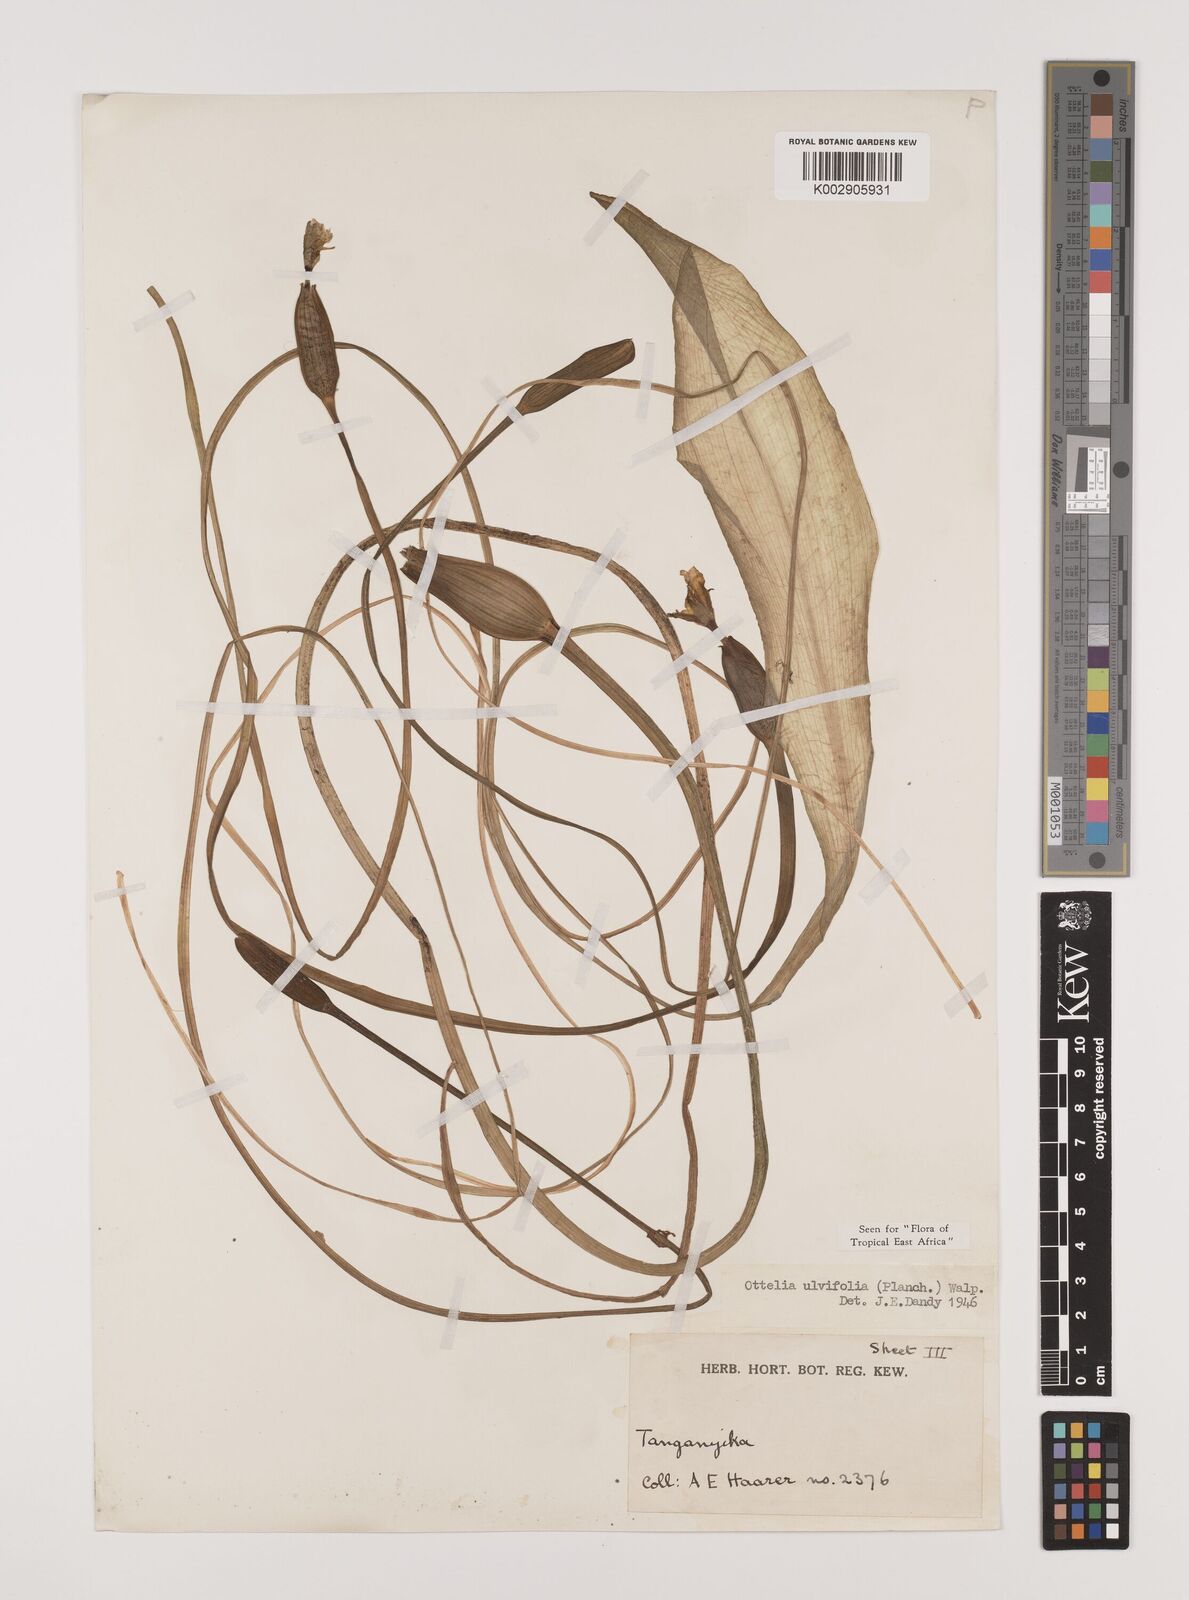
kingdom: Plantae
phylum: Tracheophyta
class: Liliopsida
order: Alismatales
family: Hydrocharitaceae
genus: Ottelia
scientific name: Ottelia ulvifolia
